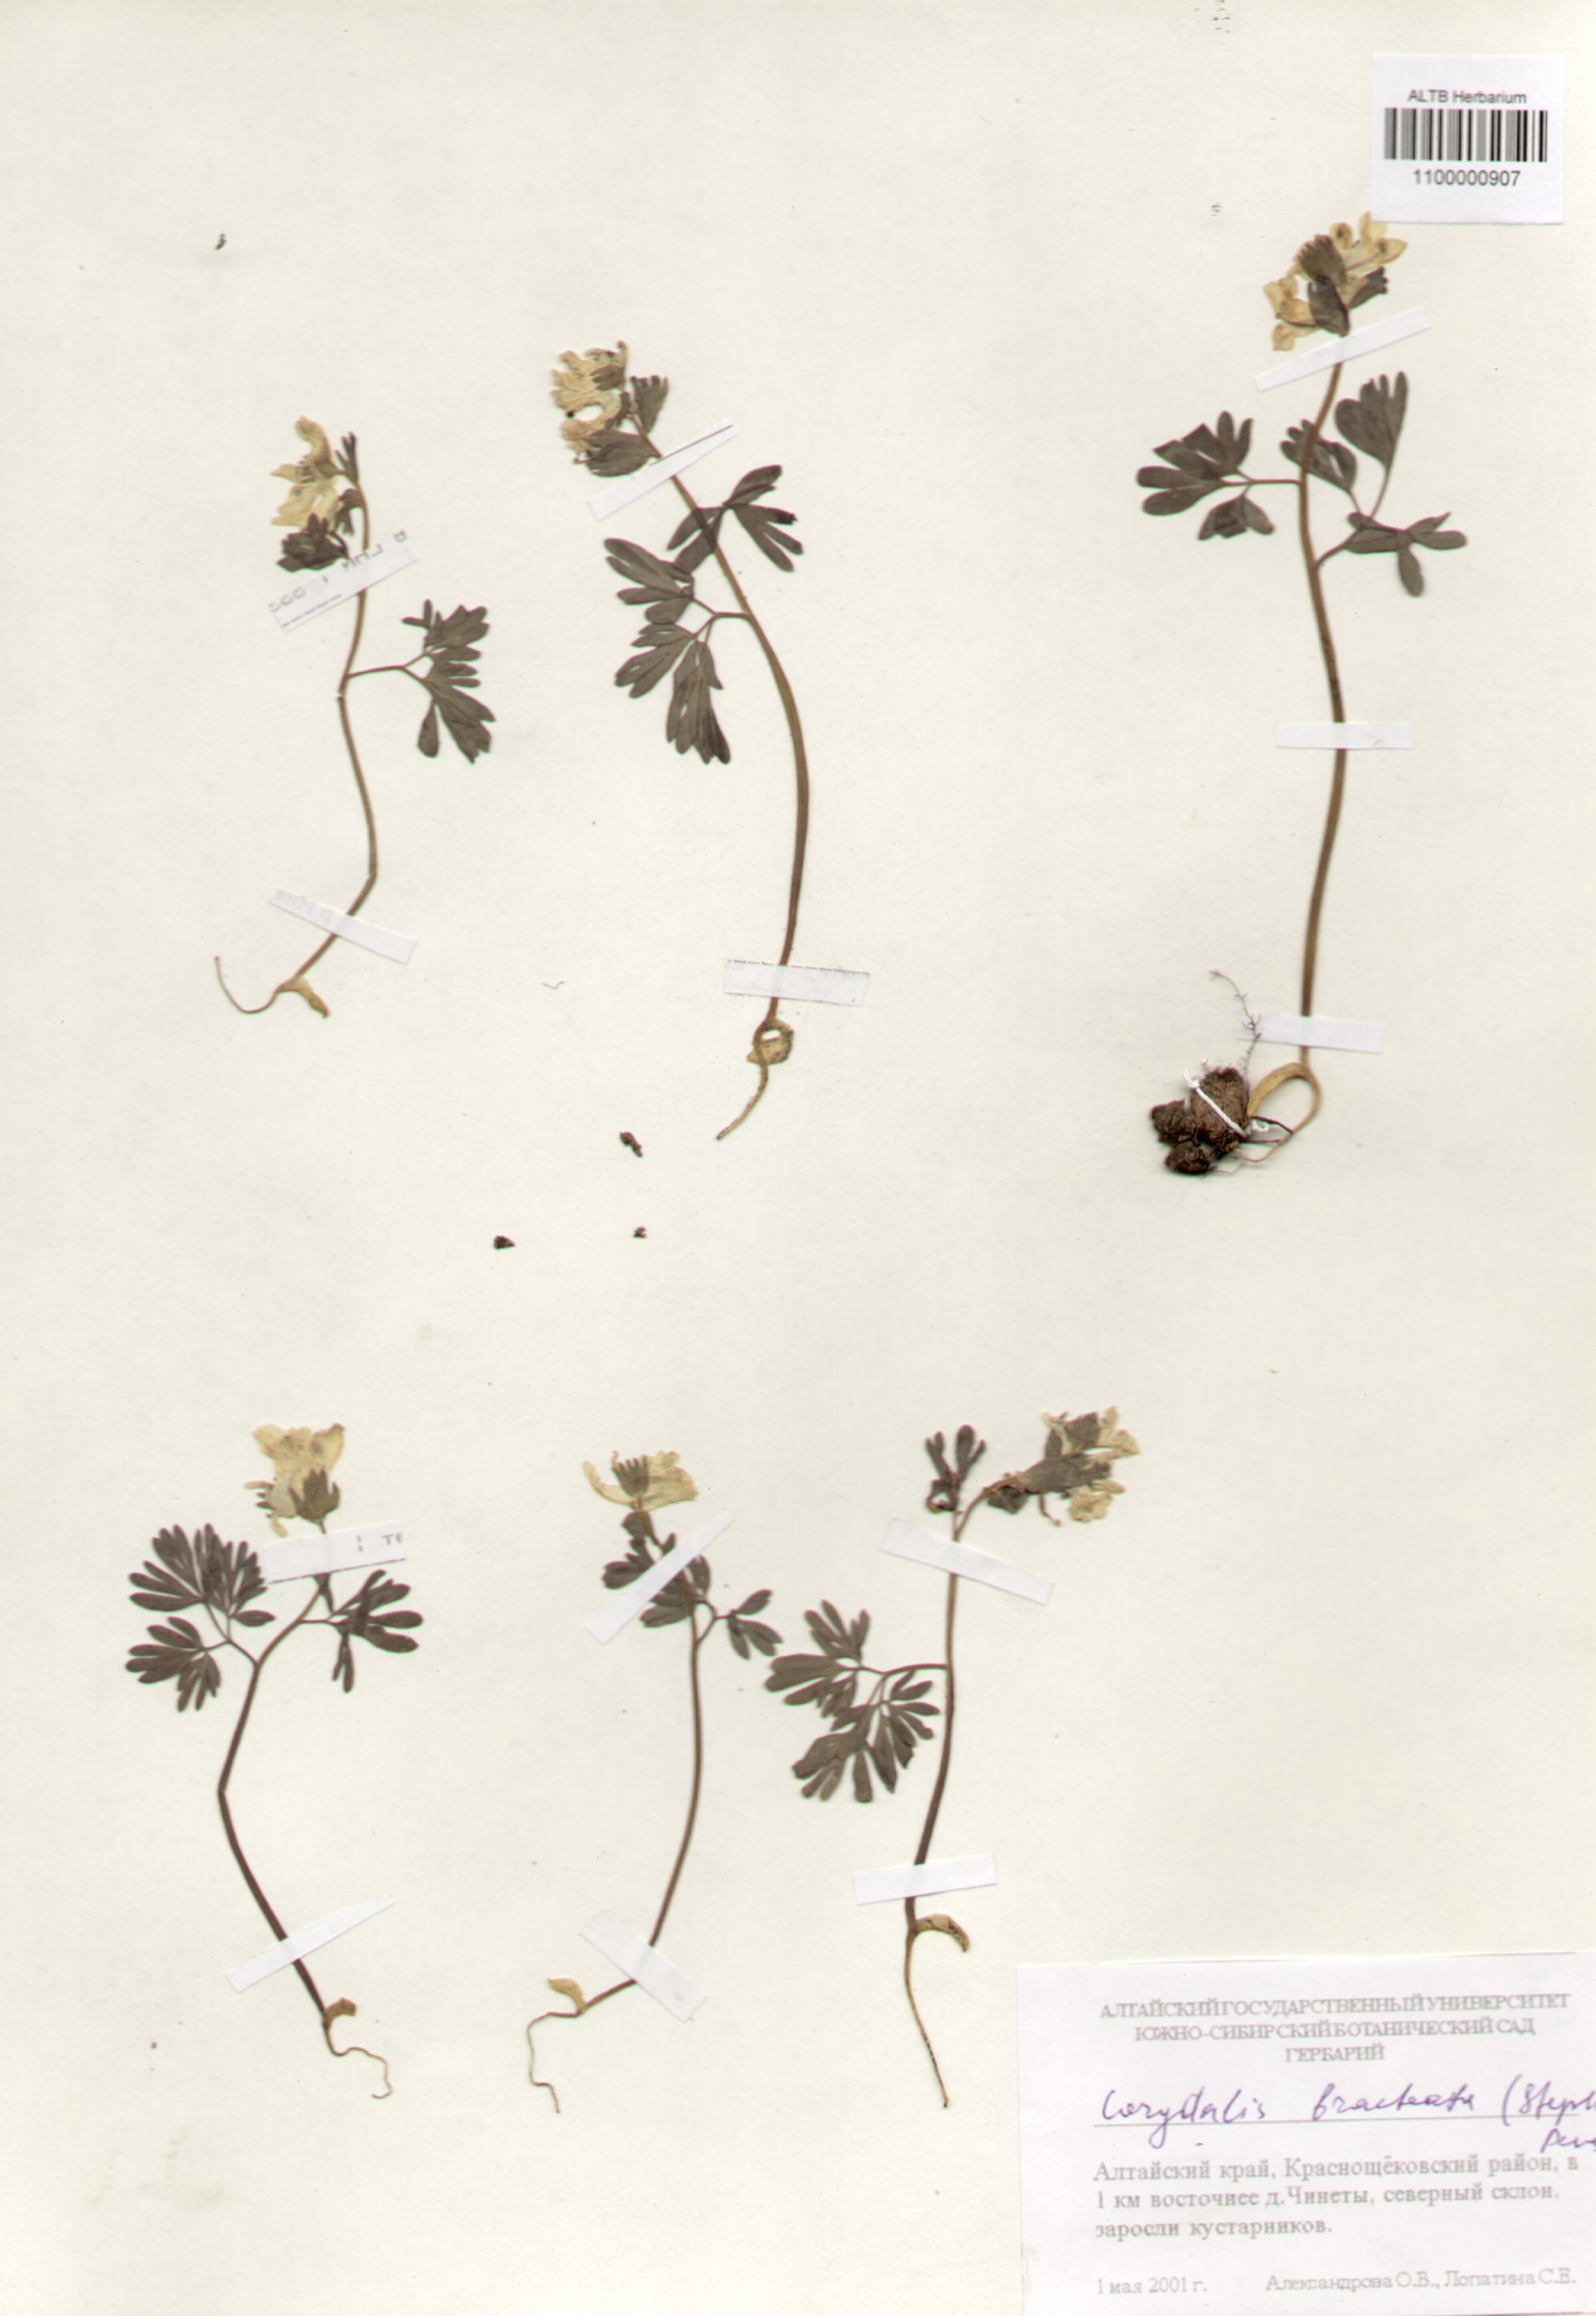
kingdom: Plantae
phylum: Tracheophyta
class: Magnoliopsida
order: Ranunculales
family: Papaveraceae
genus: Corydalis
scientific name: Corydalis bracteata
